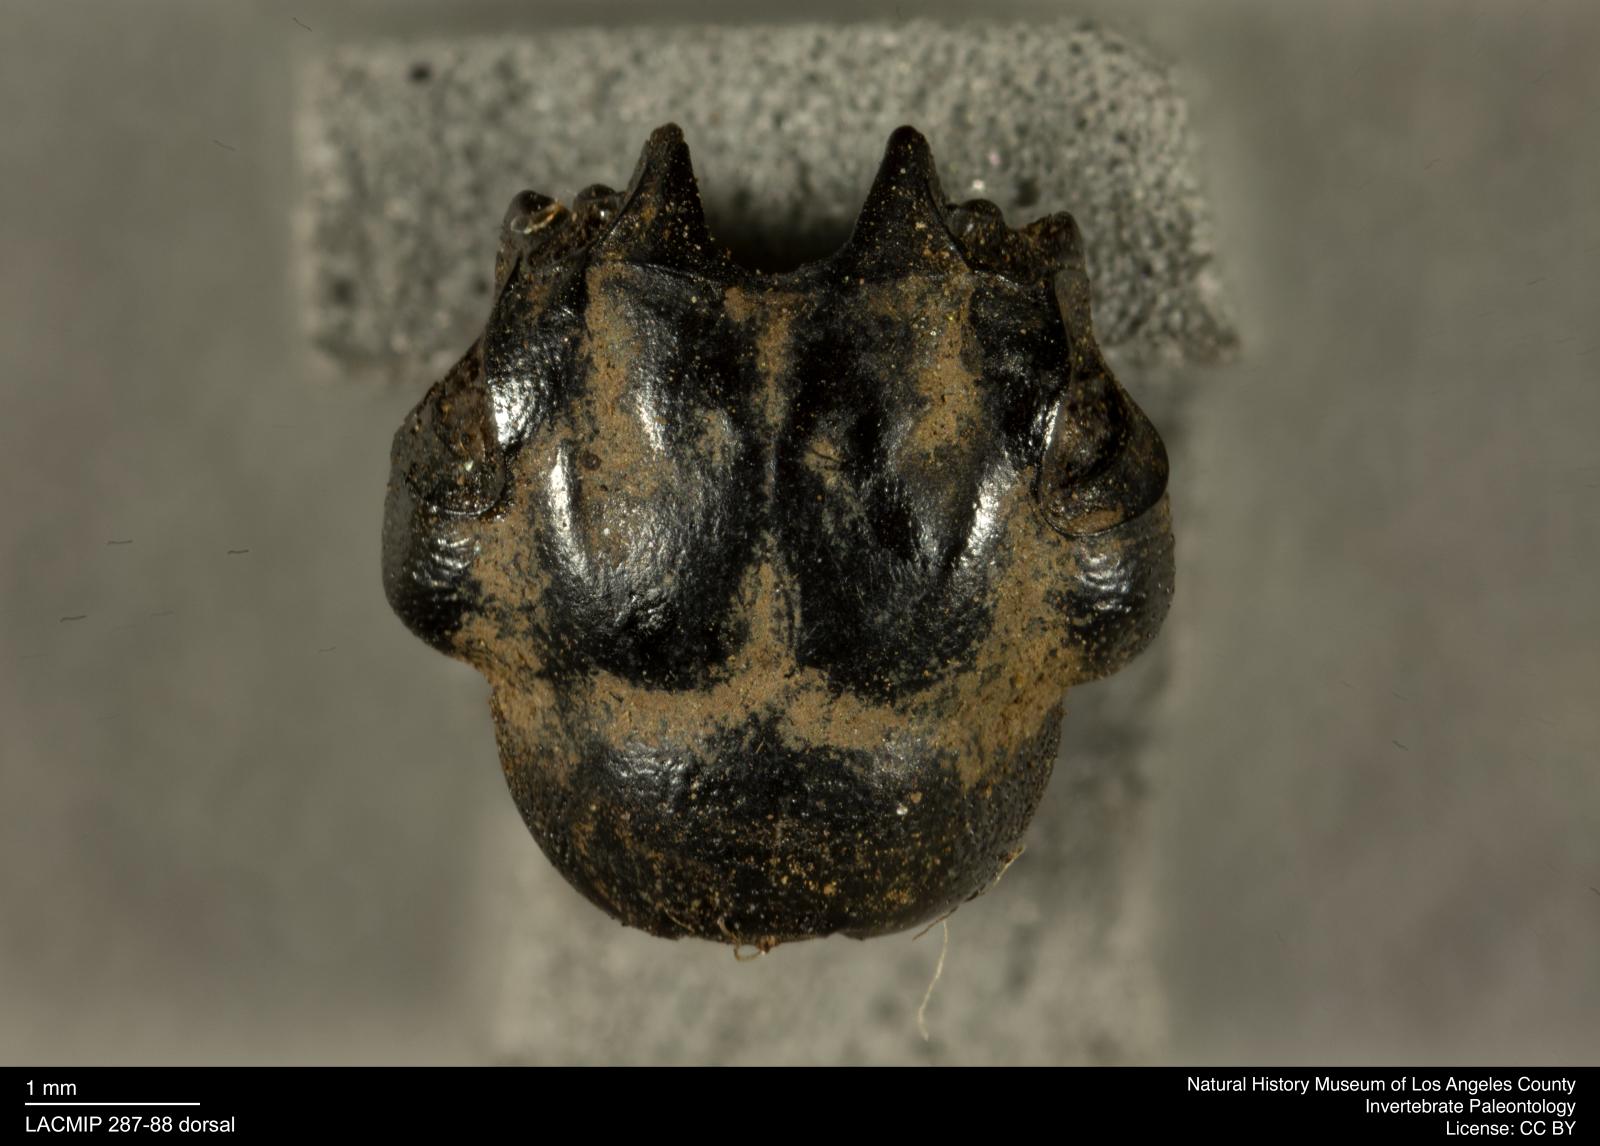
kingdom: Animalia
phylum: Arthropoda
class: Insecta
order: Coleoptera
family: Staphylinidae
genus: Nicrophorus
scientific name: Nicrophorus marginatus
